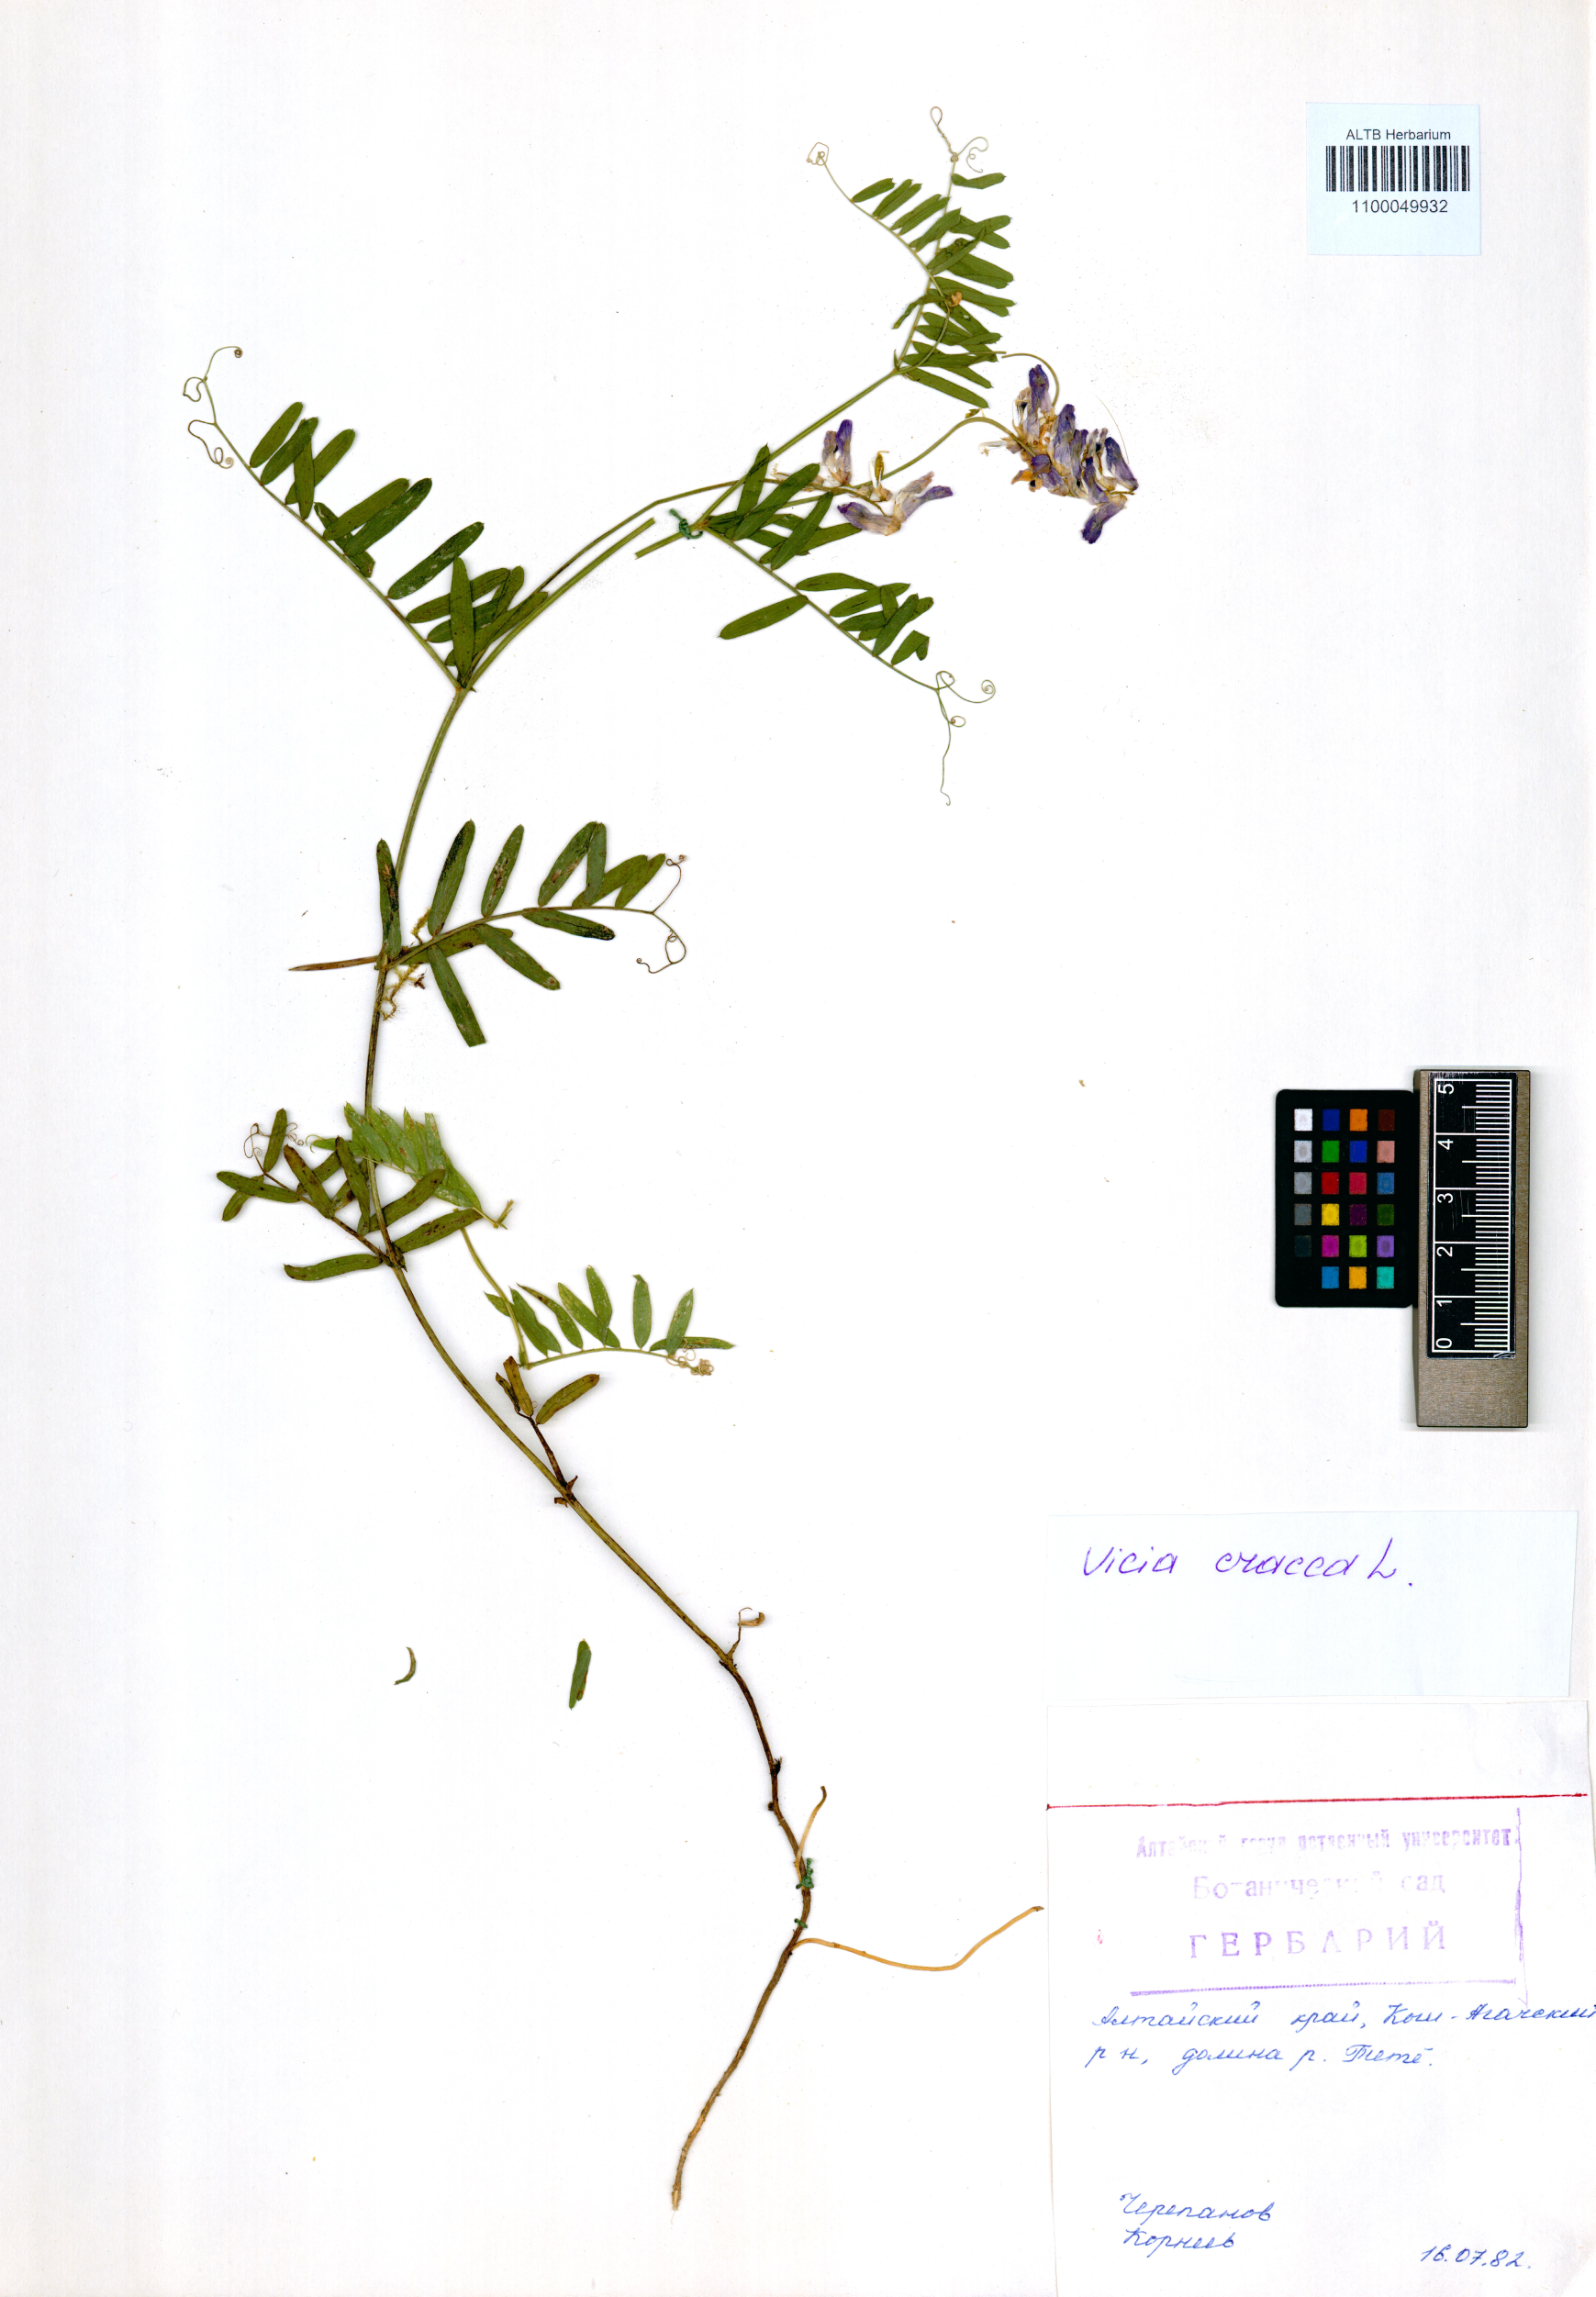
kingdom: Plantae
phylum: Tracheophyta
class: Magnoliopsida
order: Fabales
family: Fabaceae
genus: Vicia
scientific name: Vicia cracca
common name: Bird vetch
